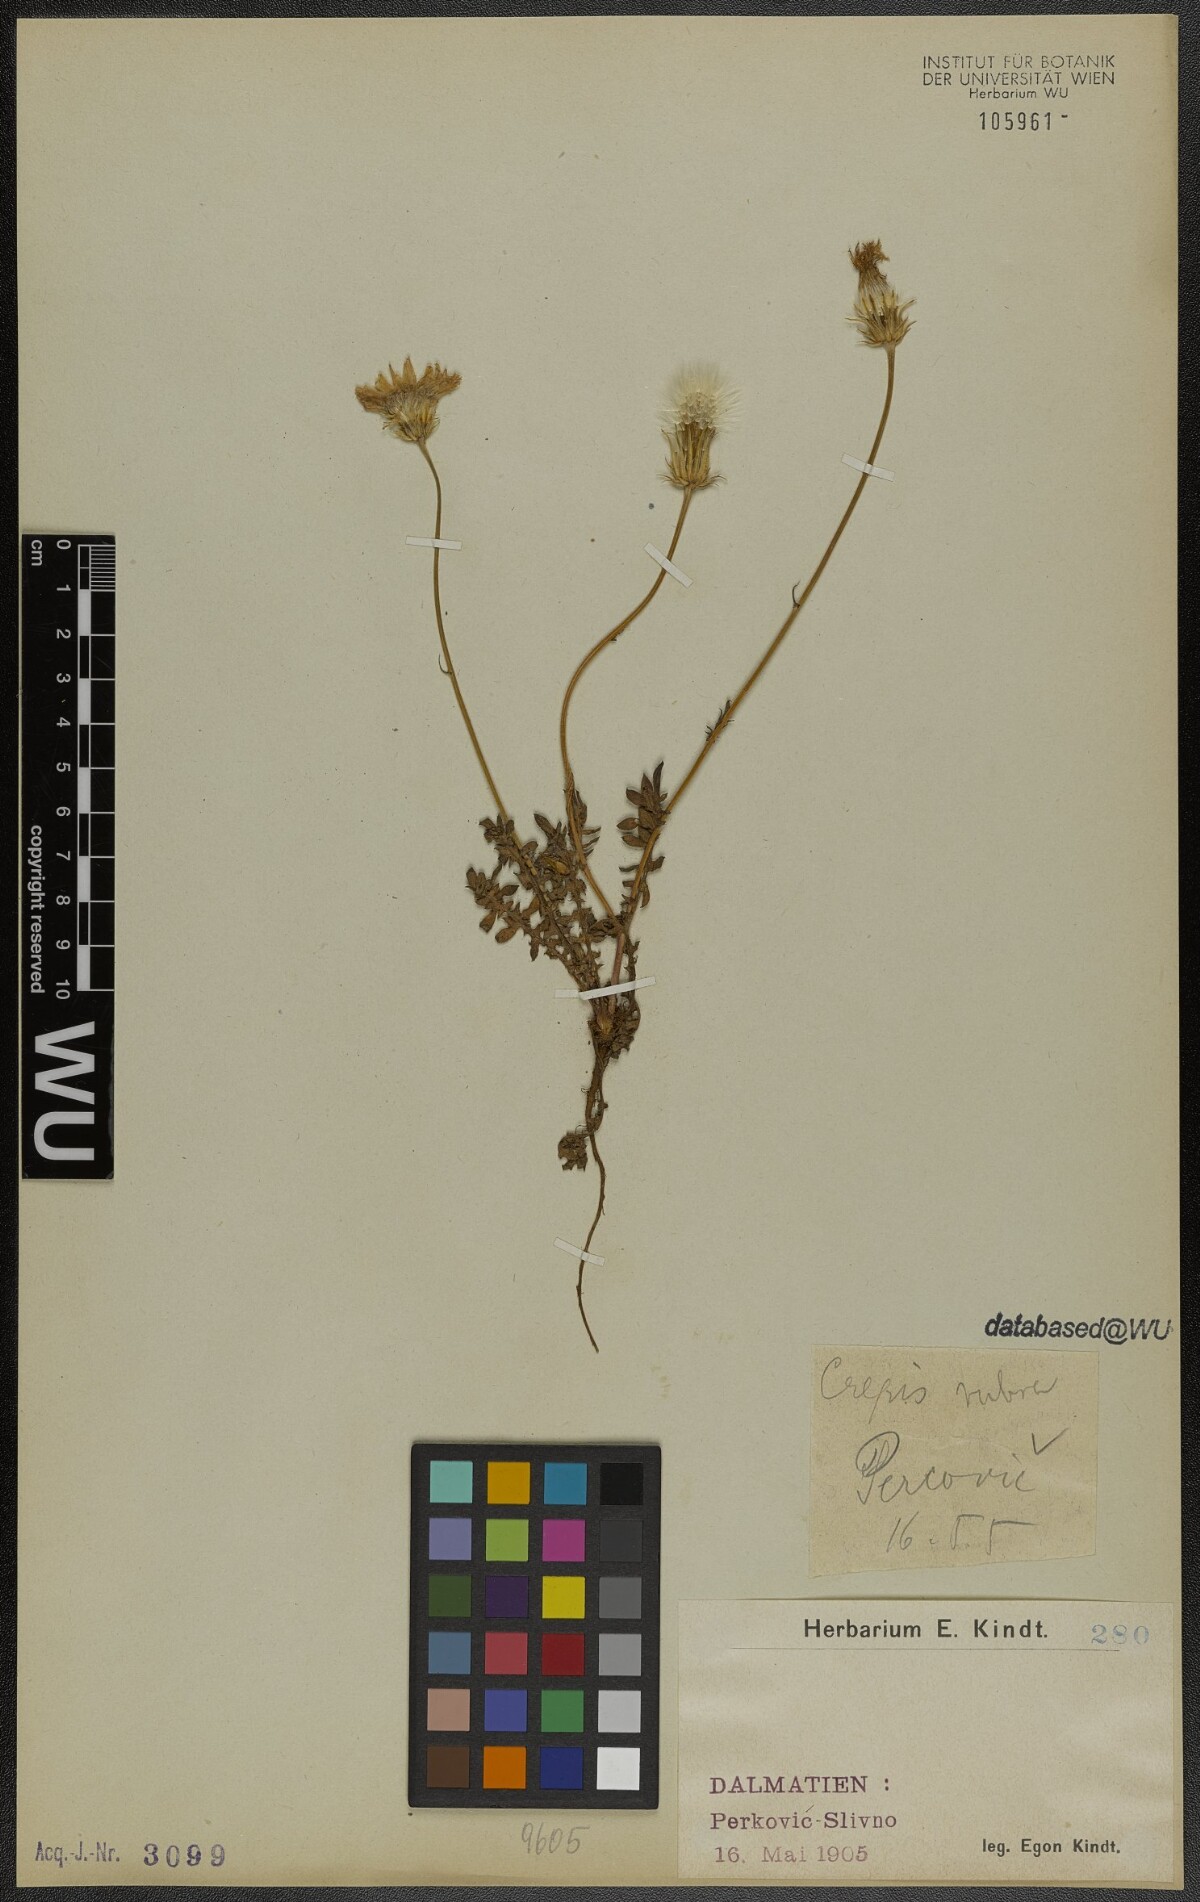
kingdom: Plantae
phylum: Tracheophyta
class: Magnoliopsida
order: Asterales
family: Asteraceae
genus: Crepis
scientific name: Crepis rubra
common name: Pink hawk's-beard
